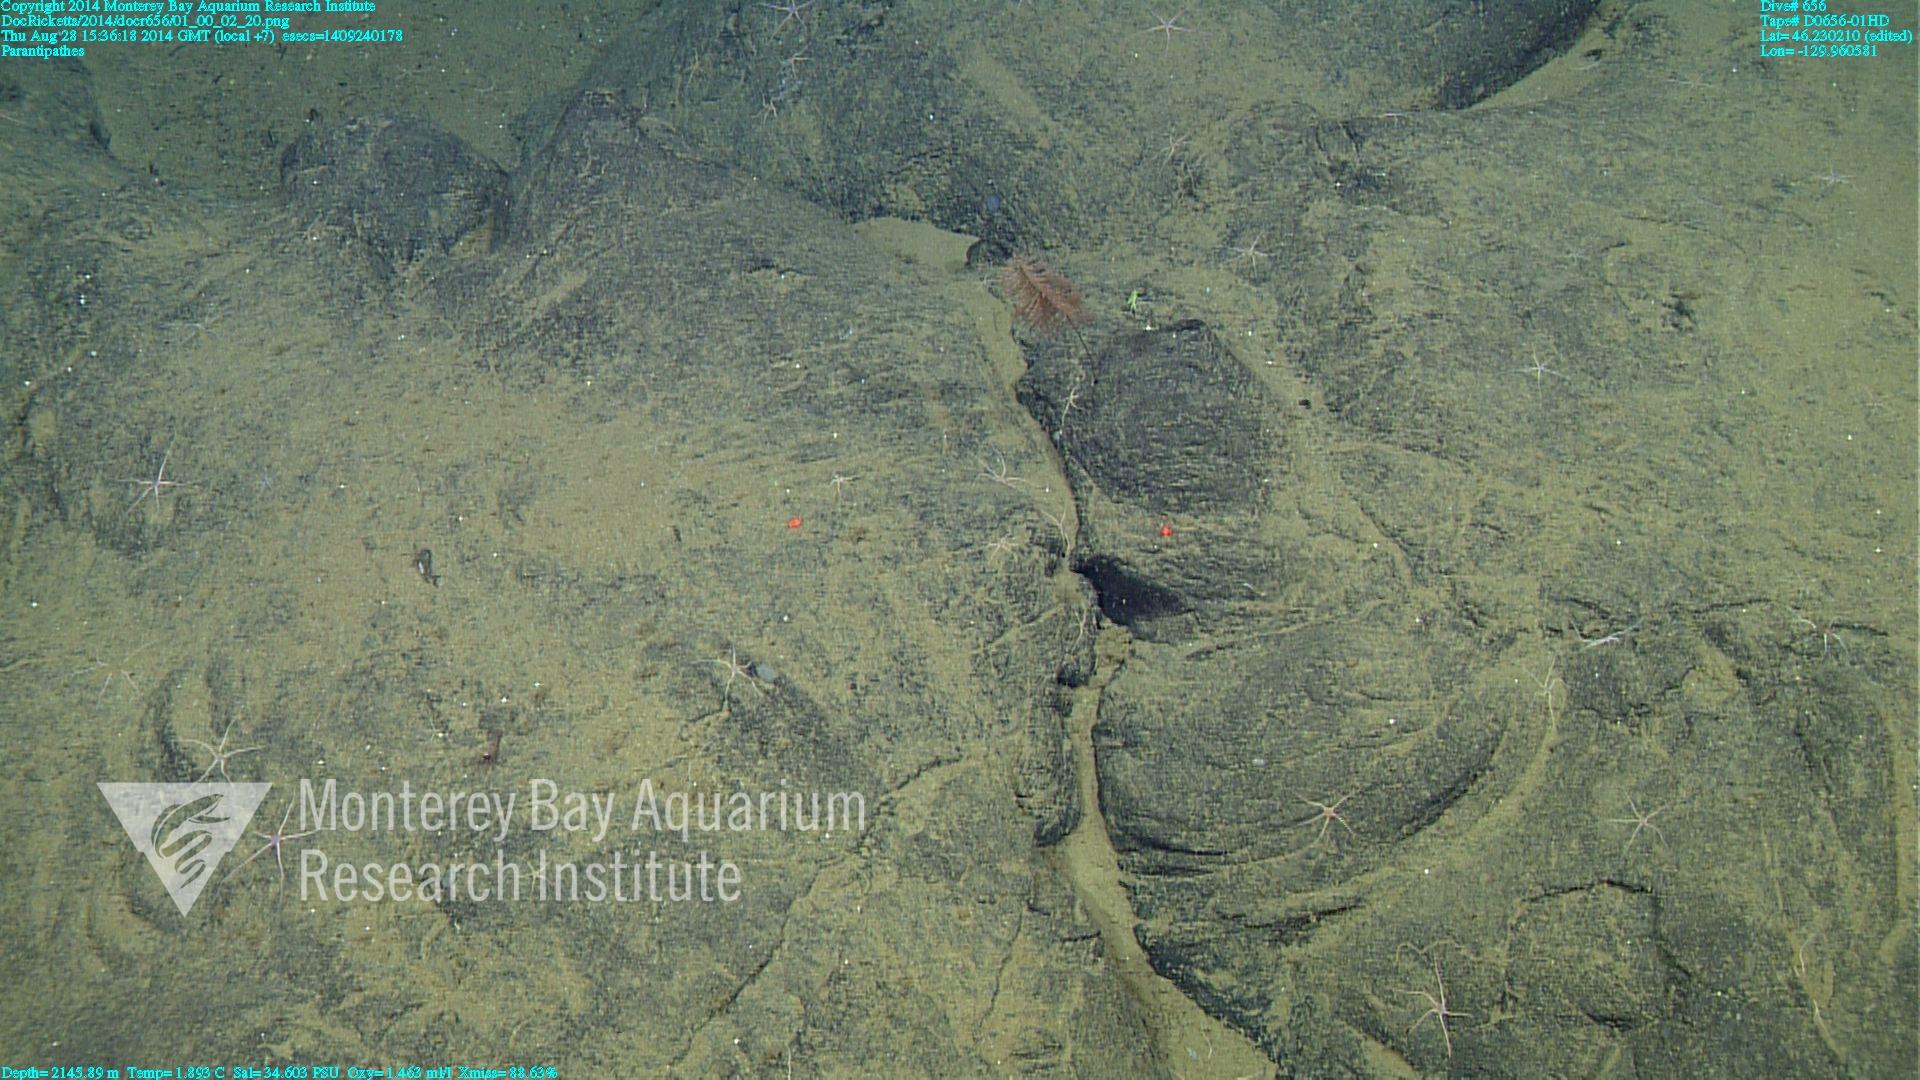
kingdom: Animalia
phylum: Cnidaria
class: Anthozoa
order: Antipatharia
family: Schizopathidae
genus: Parantipathes
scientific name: Parantipathes
